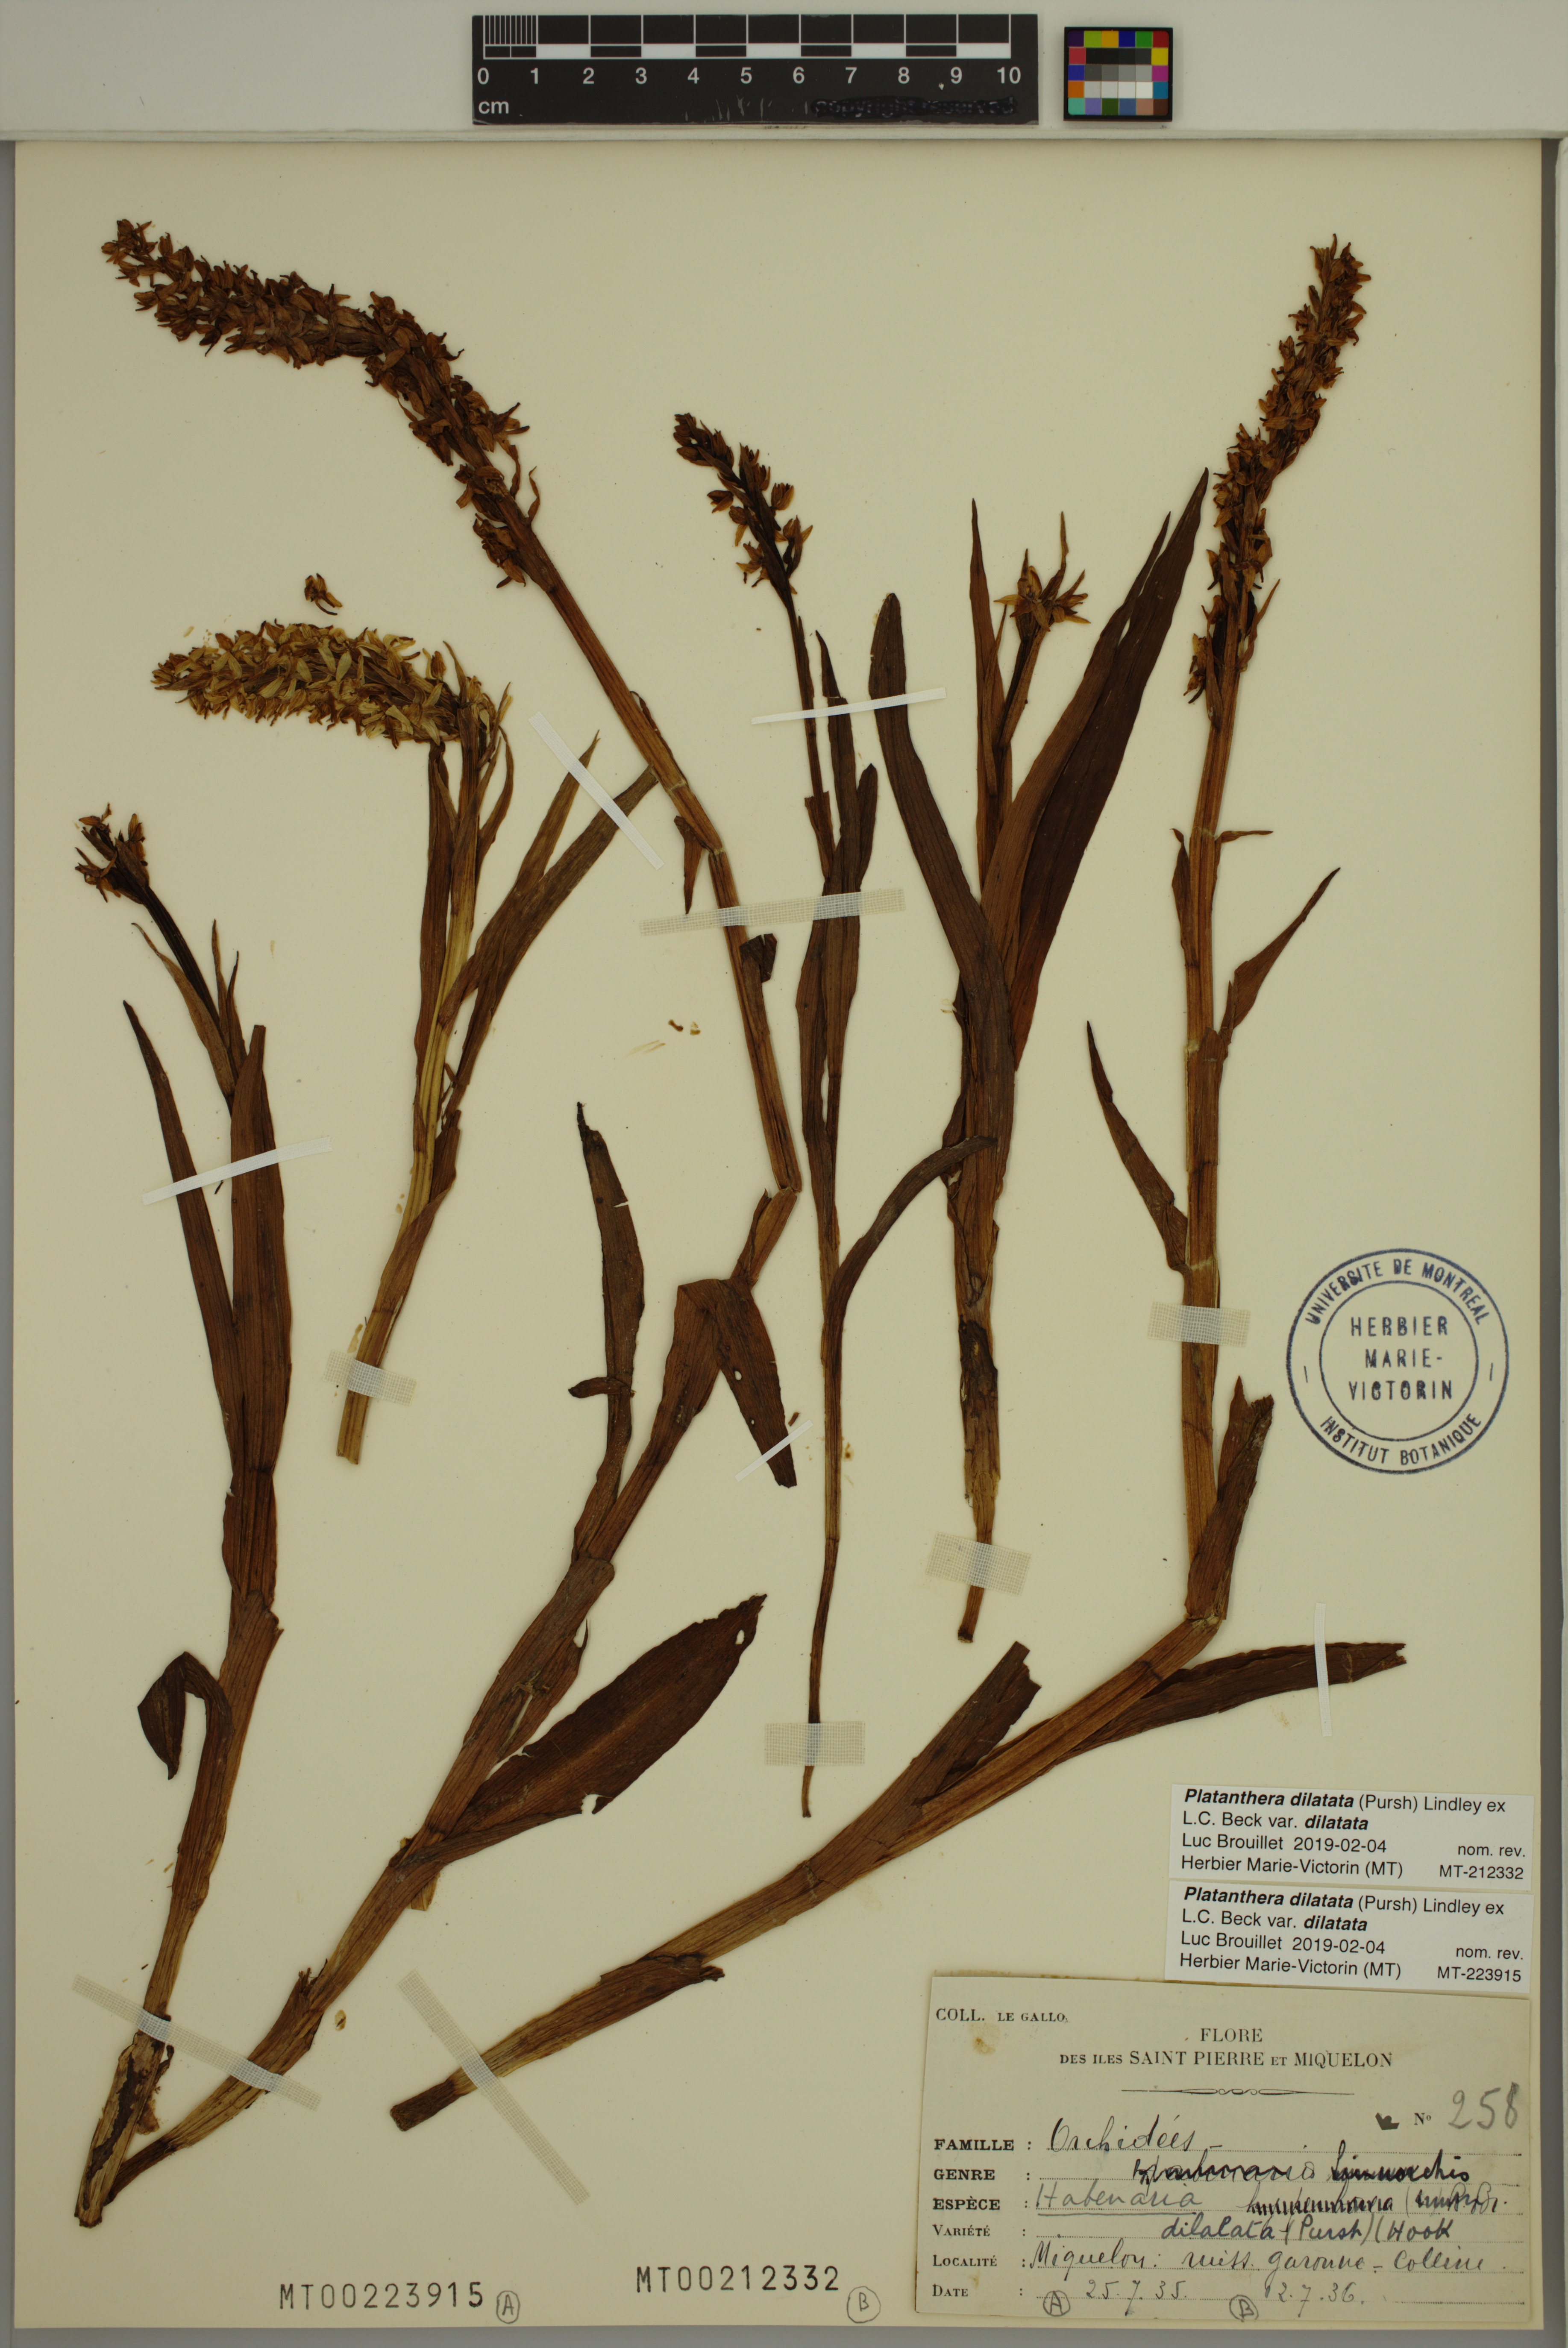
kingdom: Plantae
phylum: Tracheophyta
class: Liliopsida
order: Asparagales
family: Orchidaceae
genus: Platanthera
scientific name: Platanthera dilatata
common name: Bog candles
